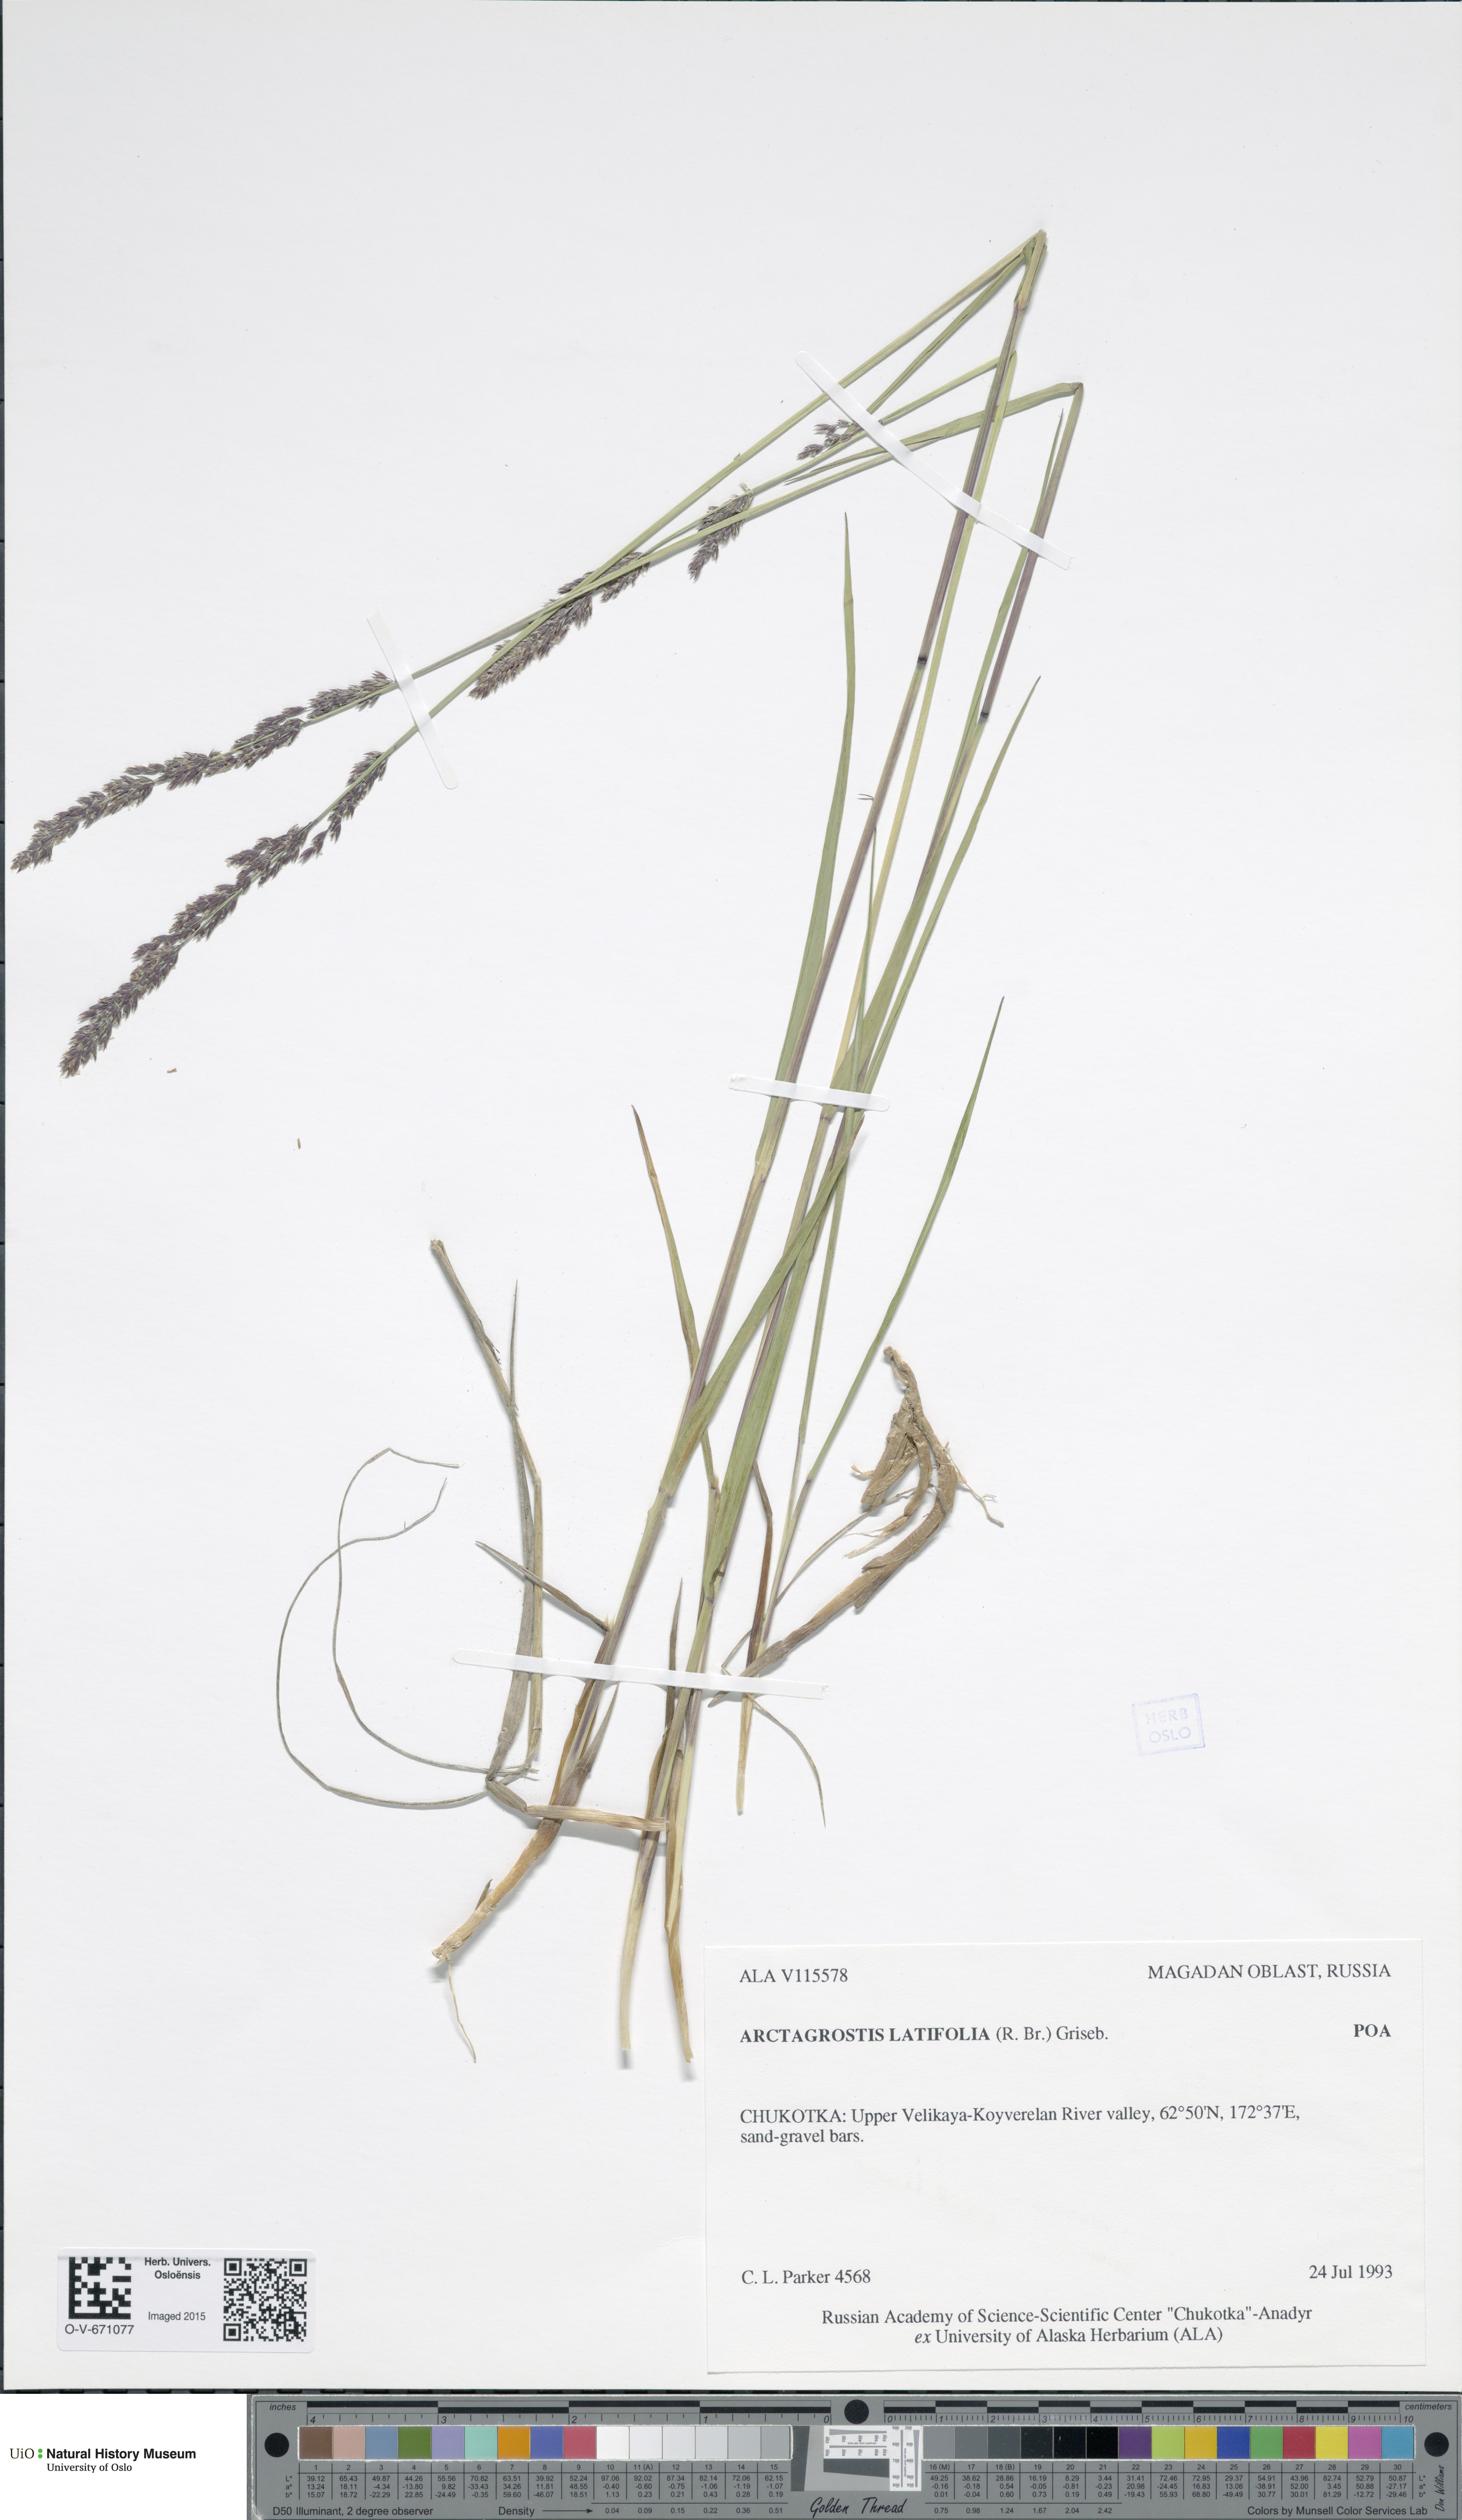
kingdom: Plantae
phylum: Tracheophyta
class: Liliopsida
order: Poales
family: Poaceae
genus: Arctagrostis
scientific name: Arctagrostis latifolia
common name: Arctic grass
